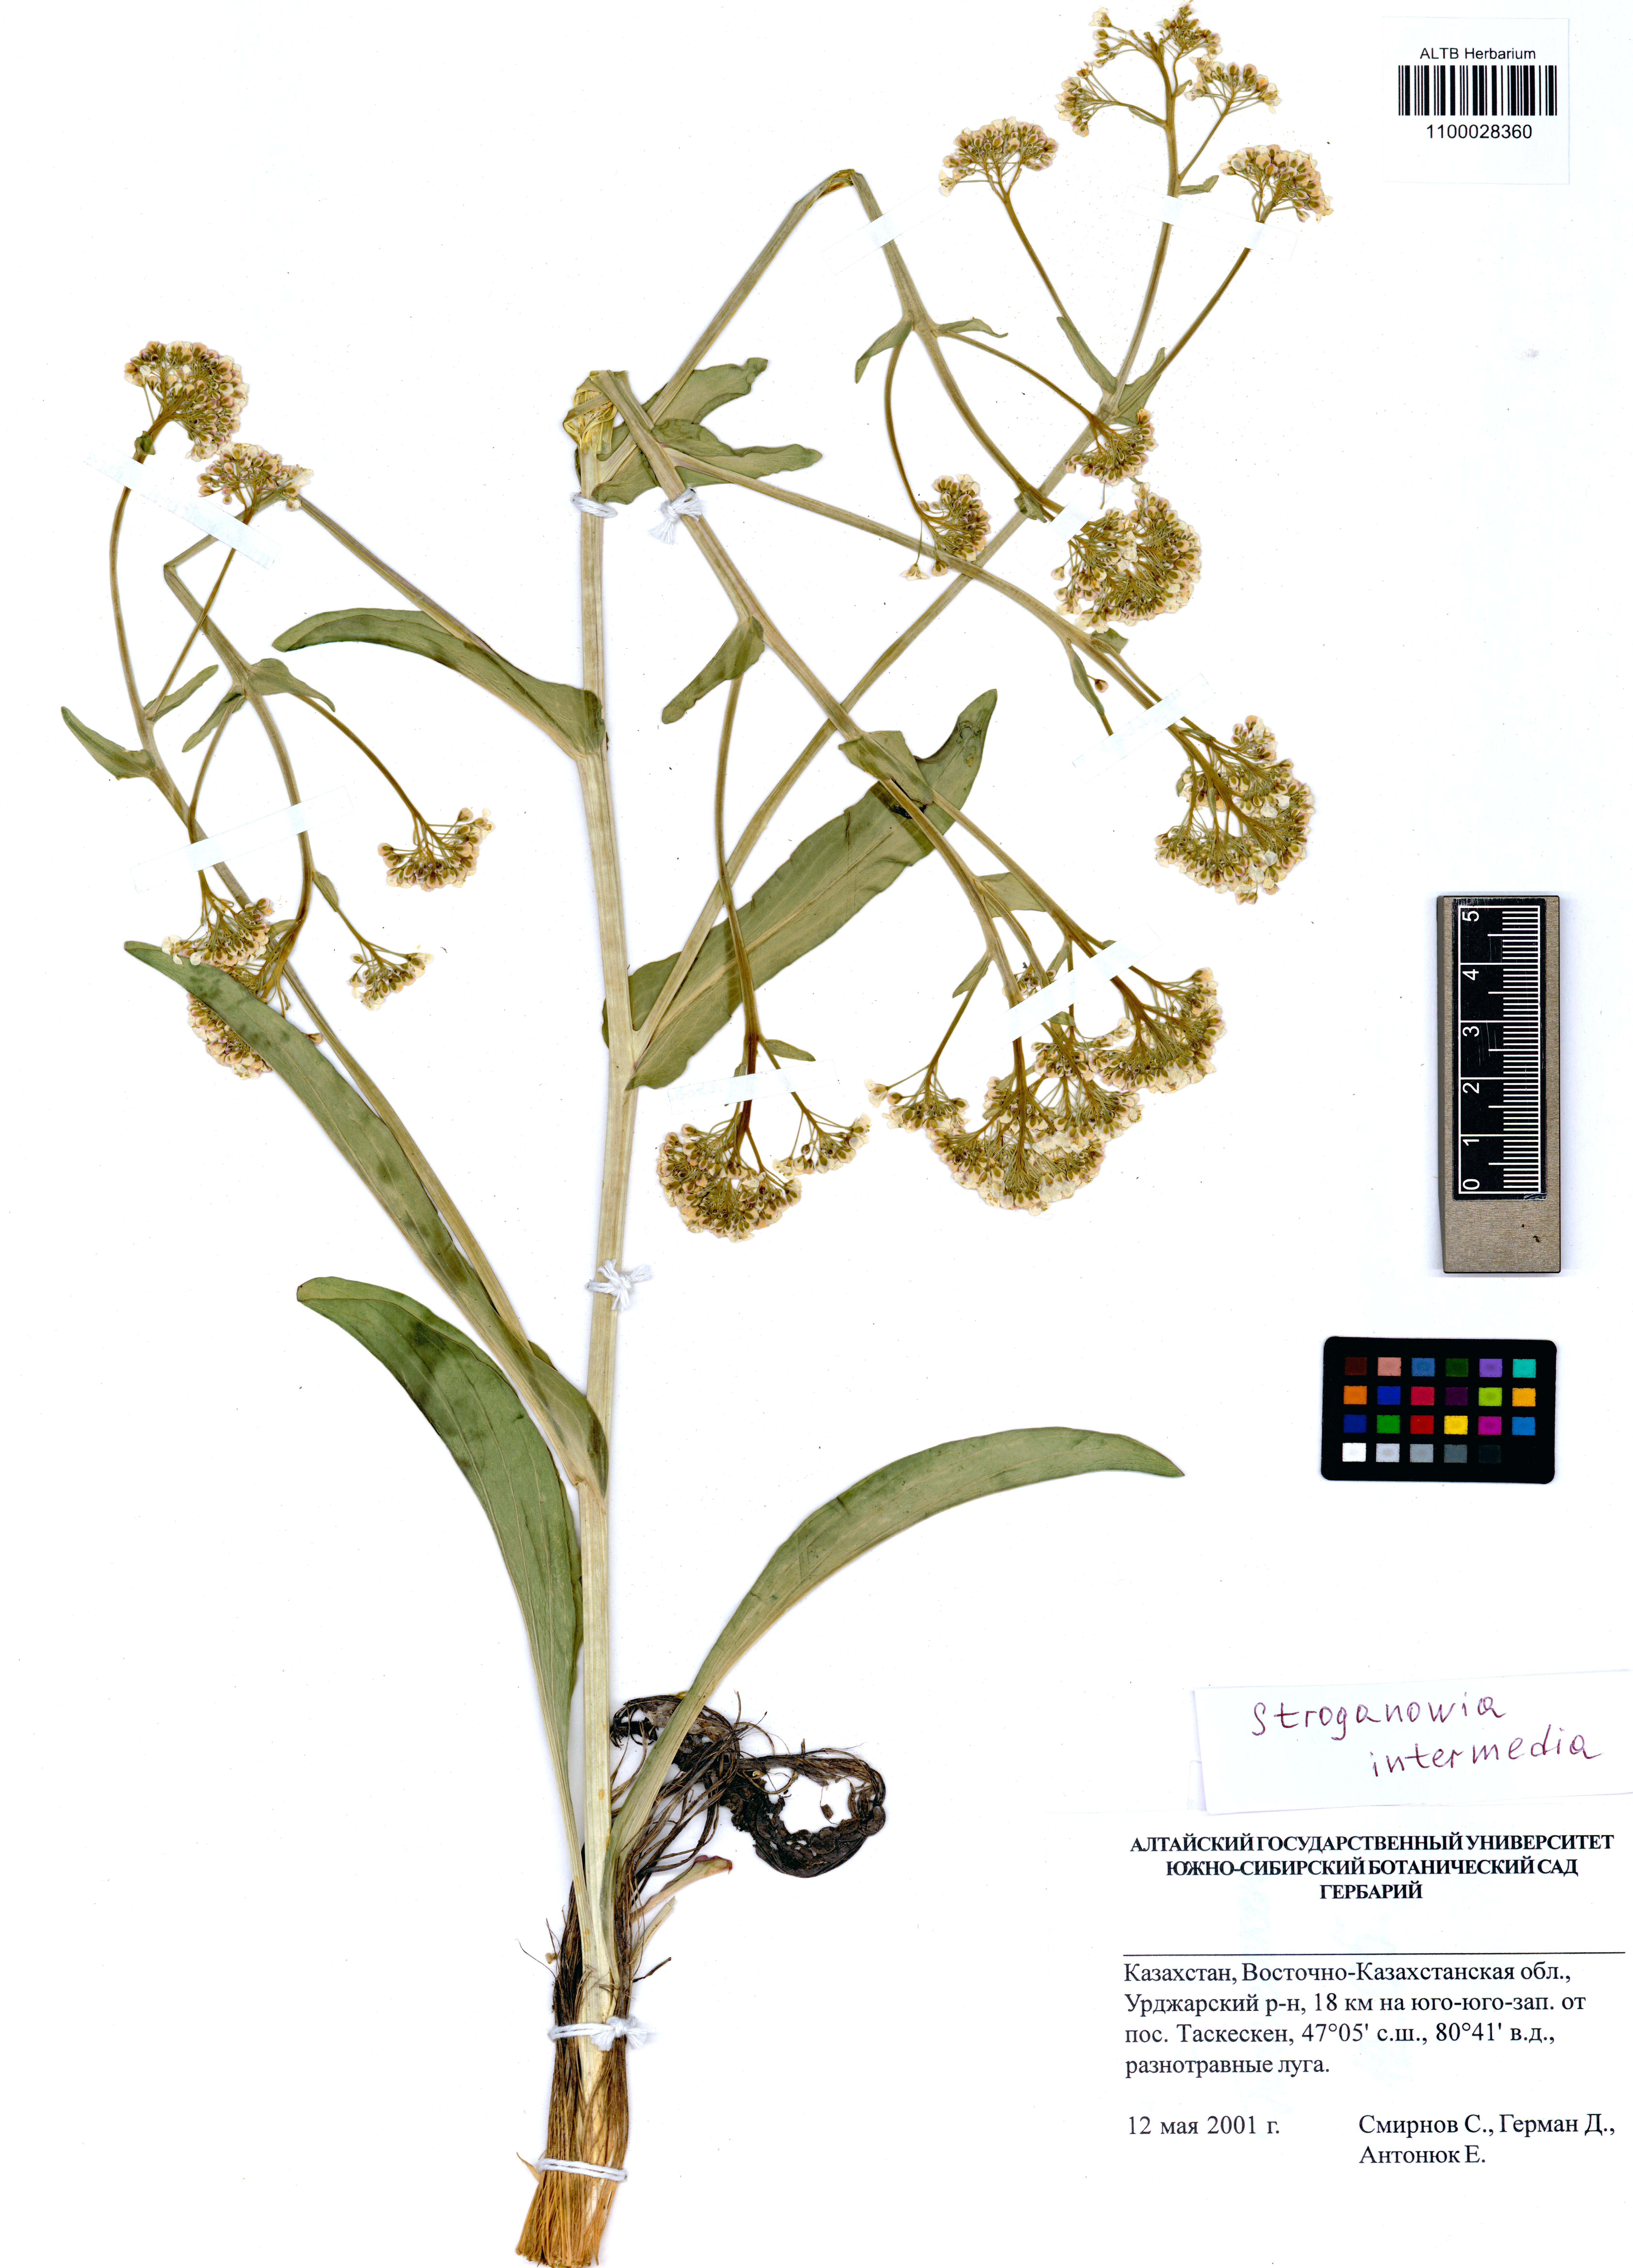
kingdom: Plantae
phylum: Tracheophyta
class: Magnoliopsida
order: Brassicales
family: Brassicaceae
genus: Lepidium
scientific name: Lepidium karelinianum
